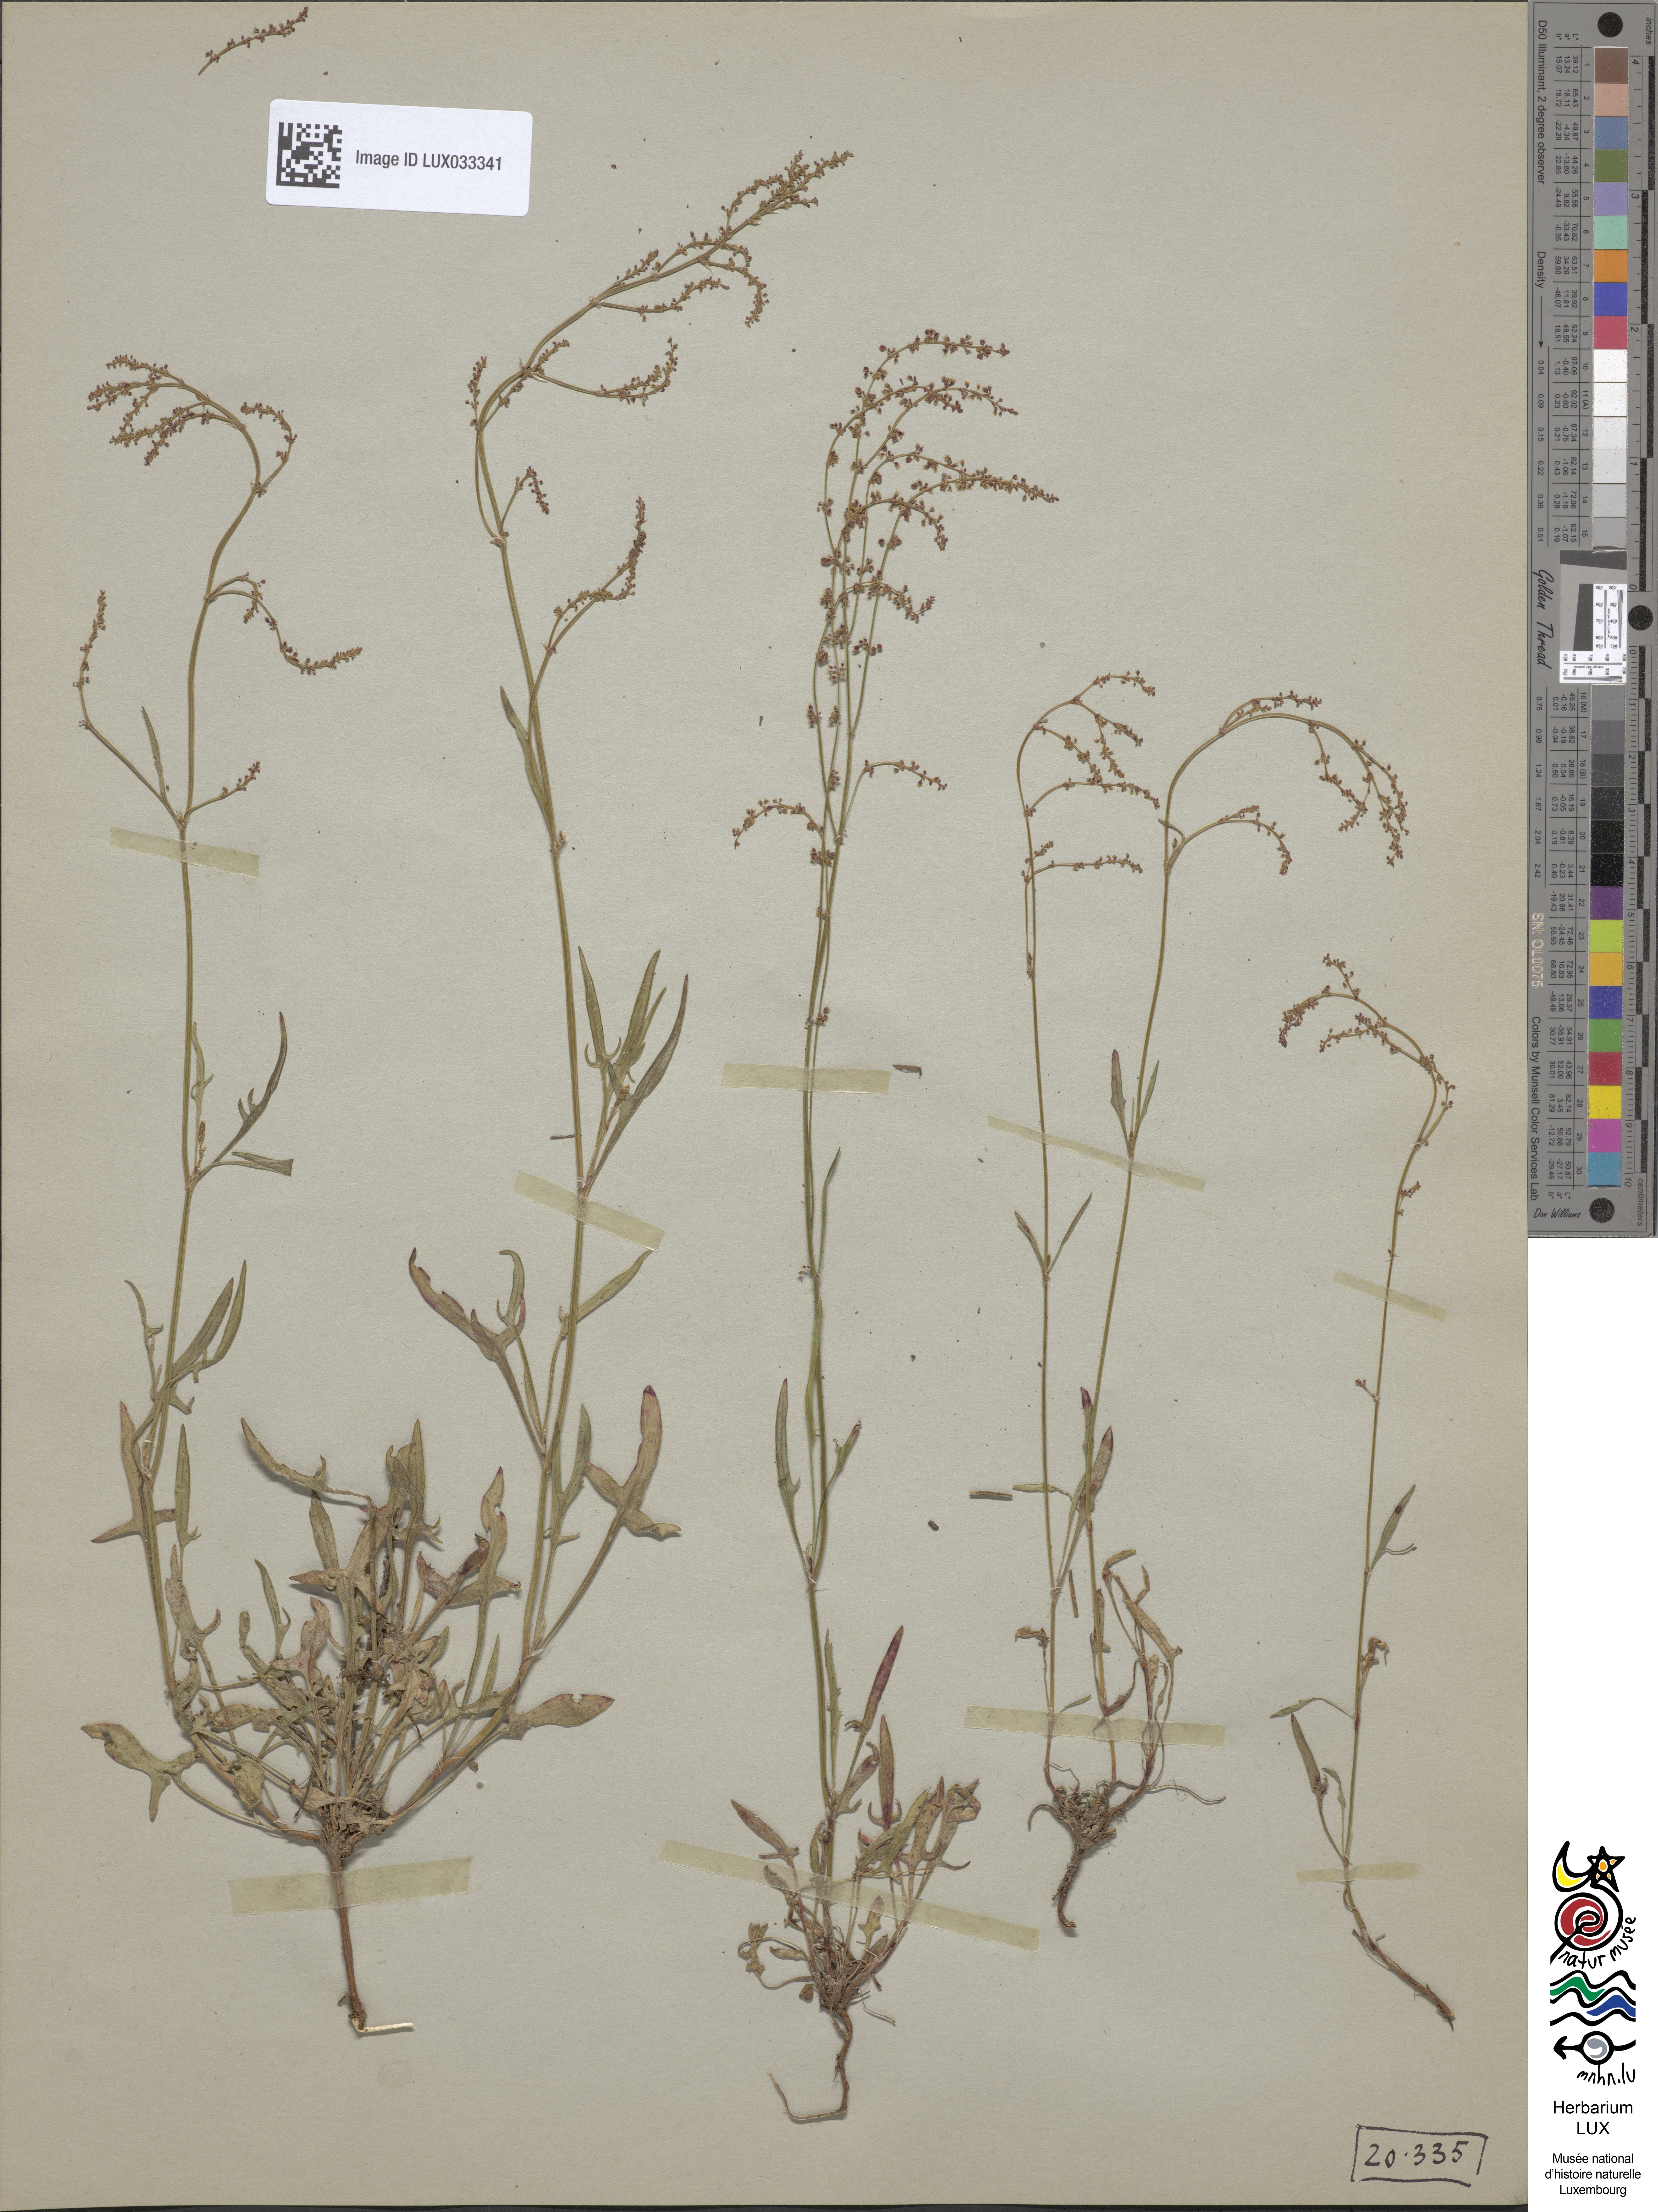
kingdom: Plantae
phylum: Tracheophyta
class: Magnoliopsida
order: Caryophyllales
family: Polygonaceae
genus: Rumex
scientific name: Rumex acetosella
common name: Common sheep sorrel
